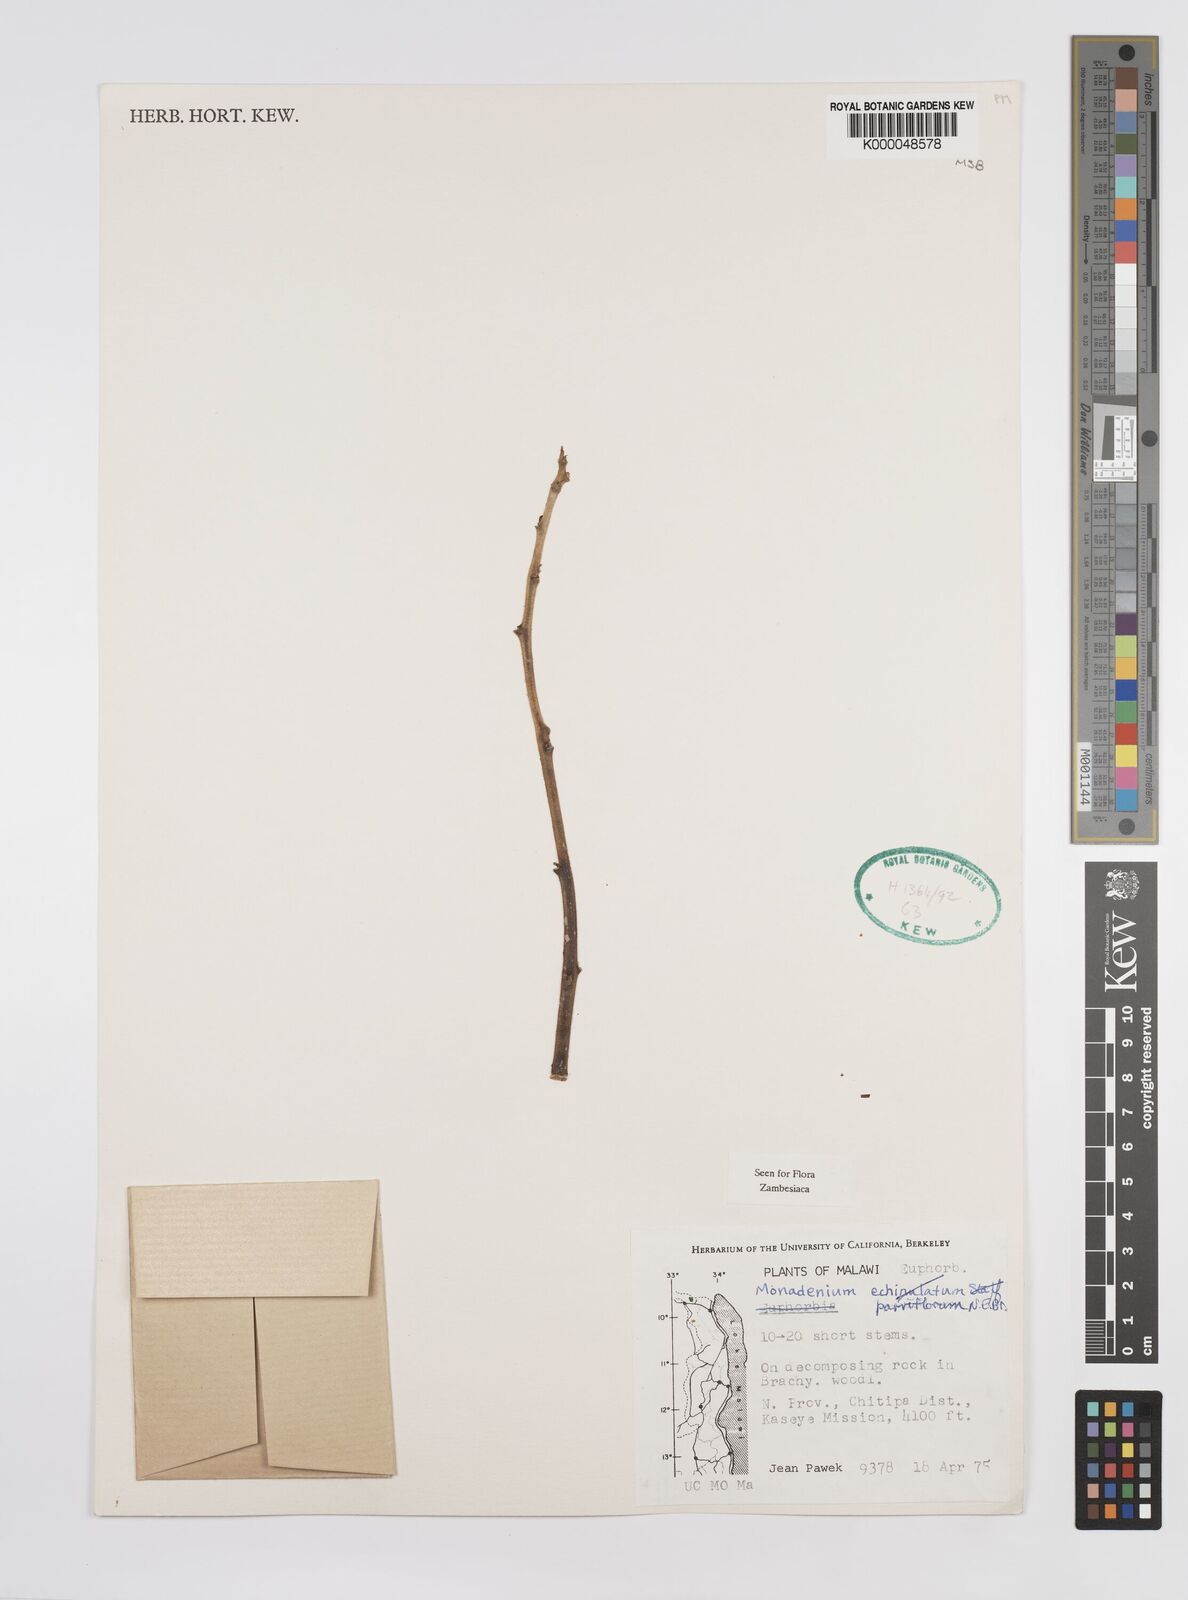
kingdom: Plantae
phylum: Tracheophyta
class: Magnoliopsida
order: Malpighiales
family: Euphorbiaceae
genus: Euphorbia
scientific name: Euphorbia neoparviflora
